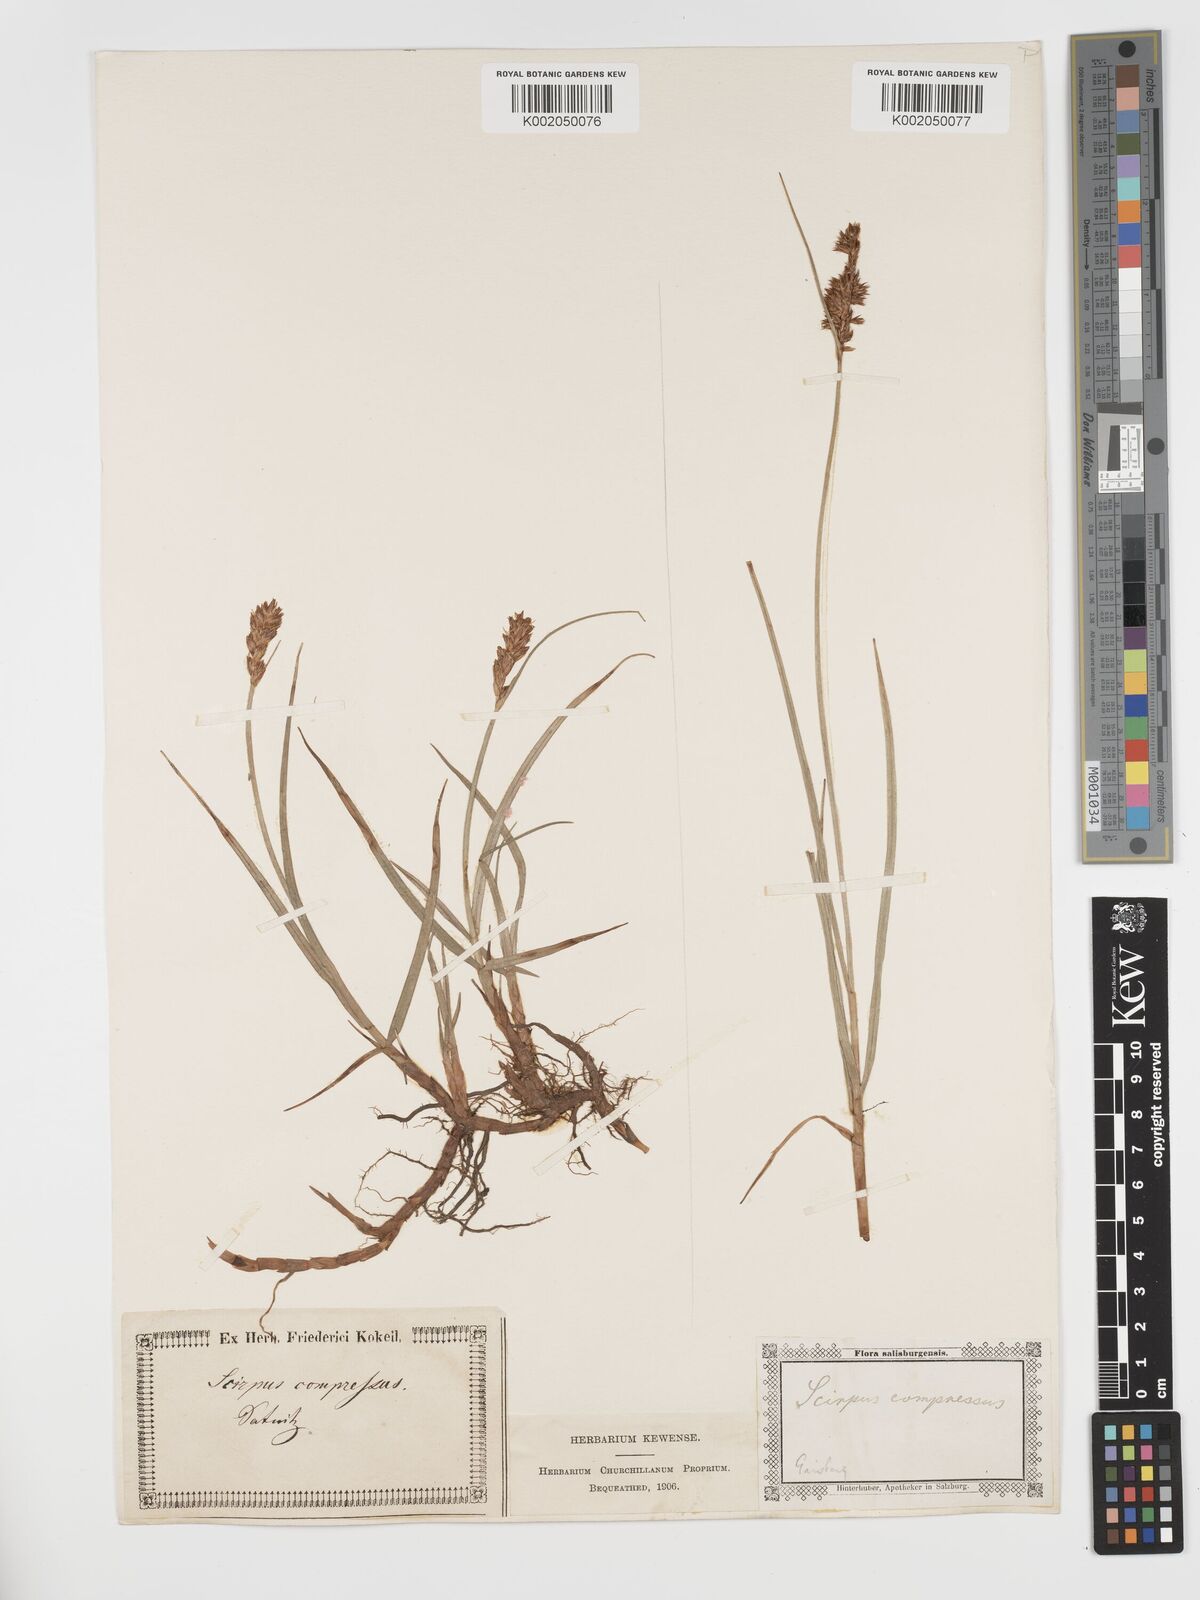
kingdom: Plantae
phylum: Tracheophyta
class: Liliopsida
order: Poales
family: Cyperaceae
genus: Blysmus
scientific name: Blysmus compressus
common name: Flat-sedge
